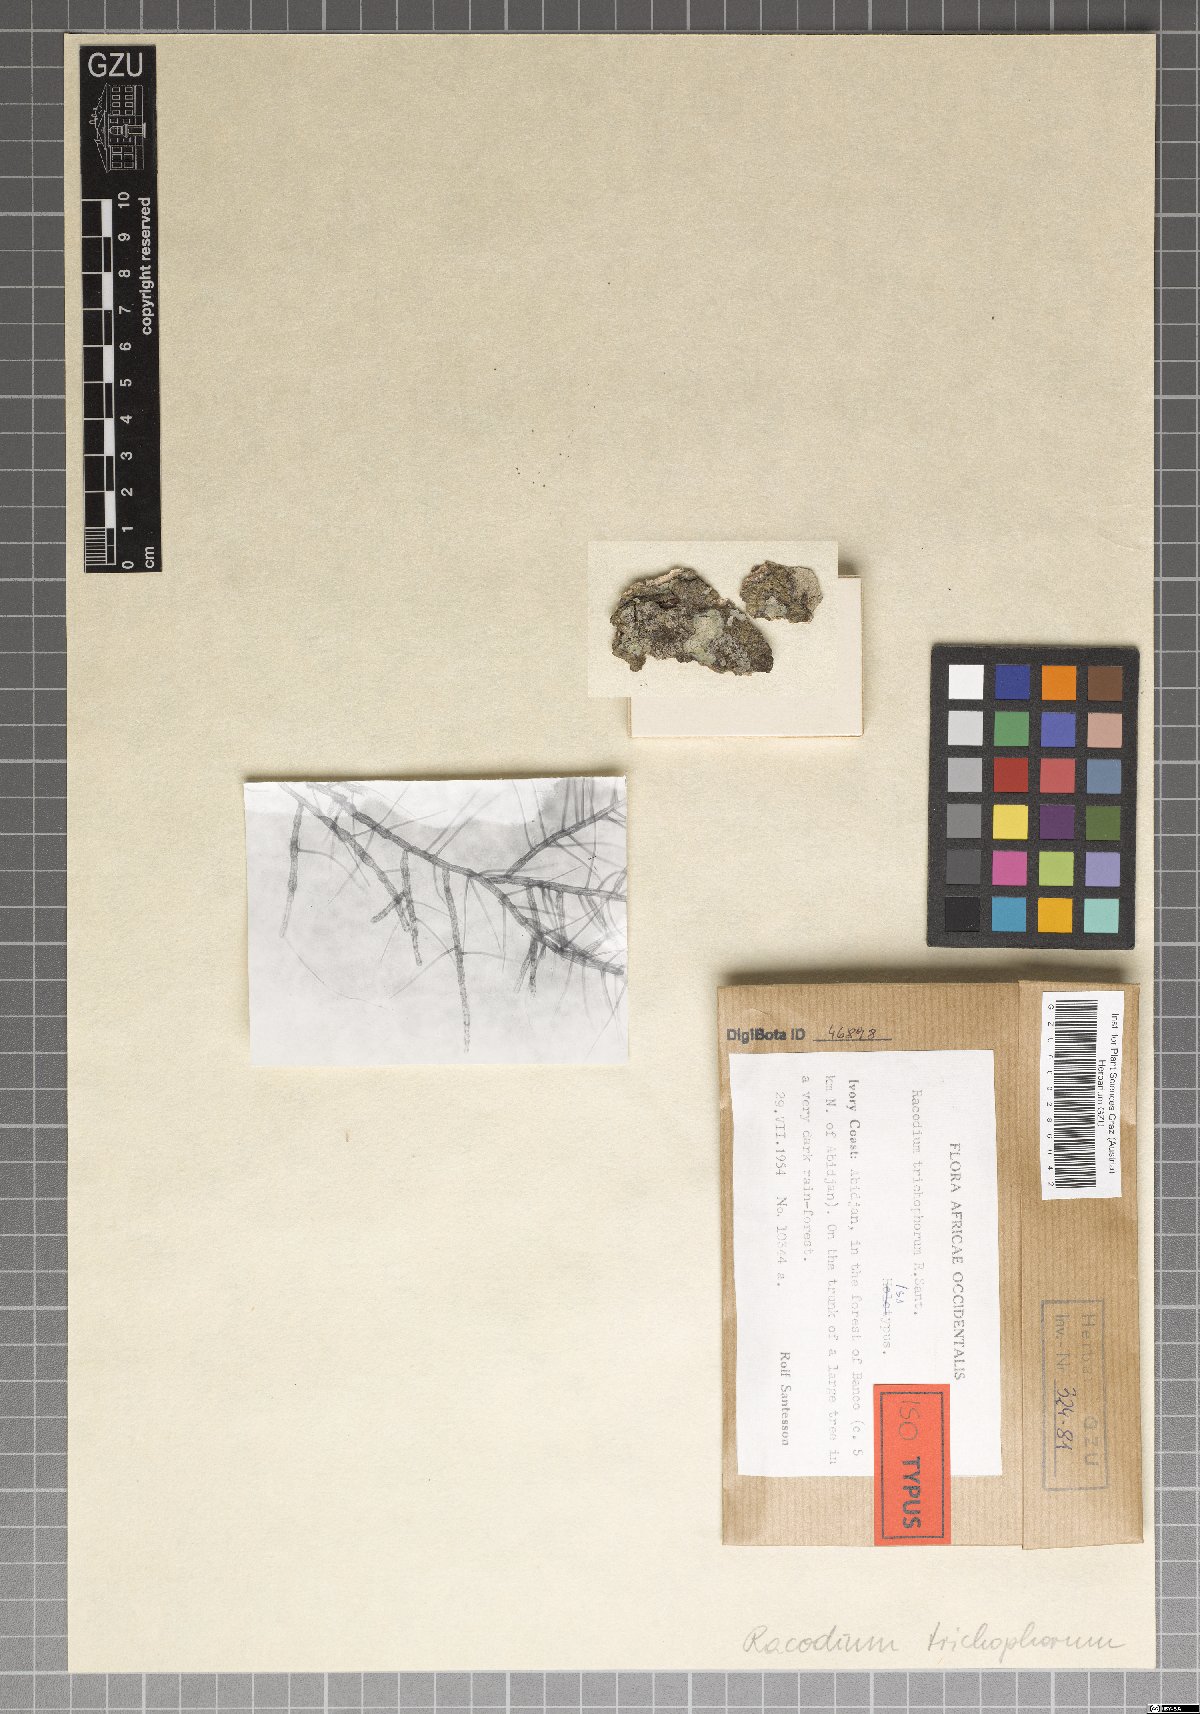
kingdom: Fungi
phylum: Ascomycota
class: Dothideomycetes
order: Capnodiales
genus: Racoleus
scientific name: Racoleus trichophorus
